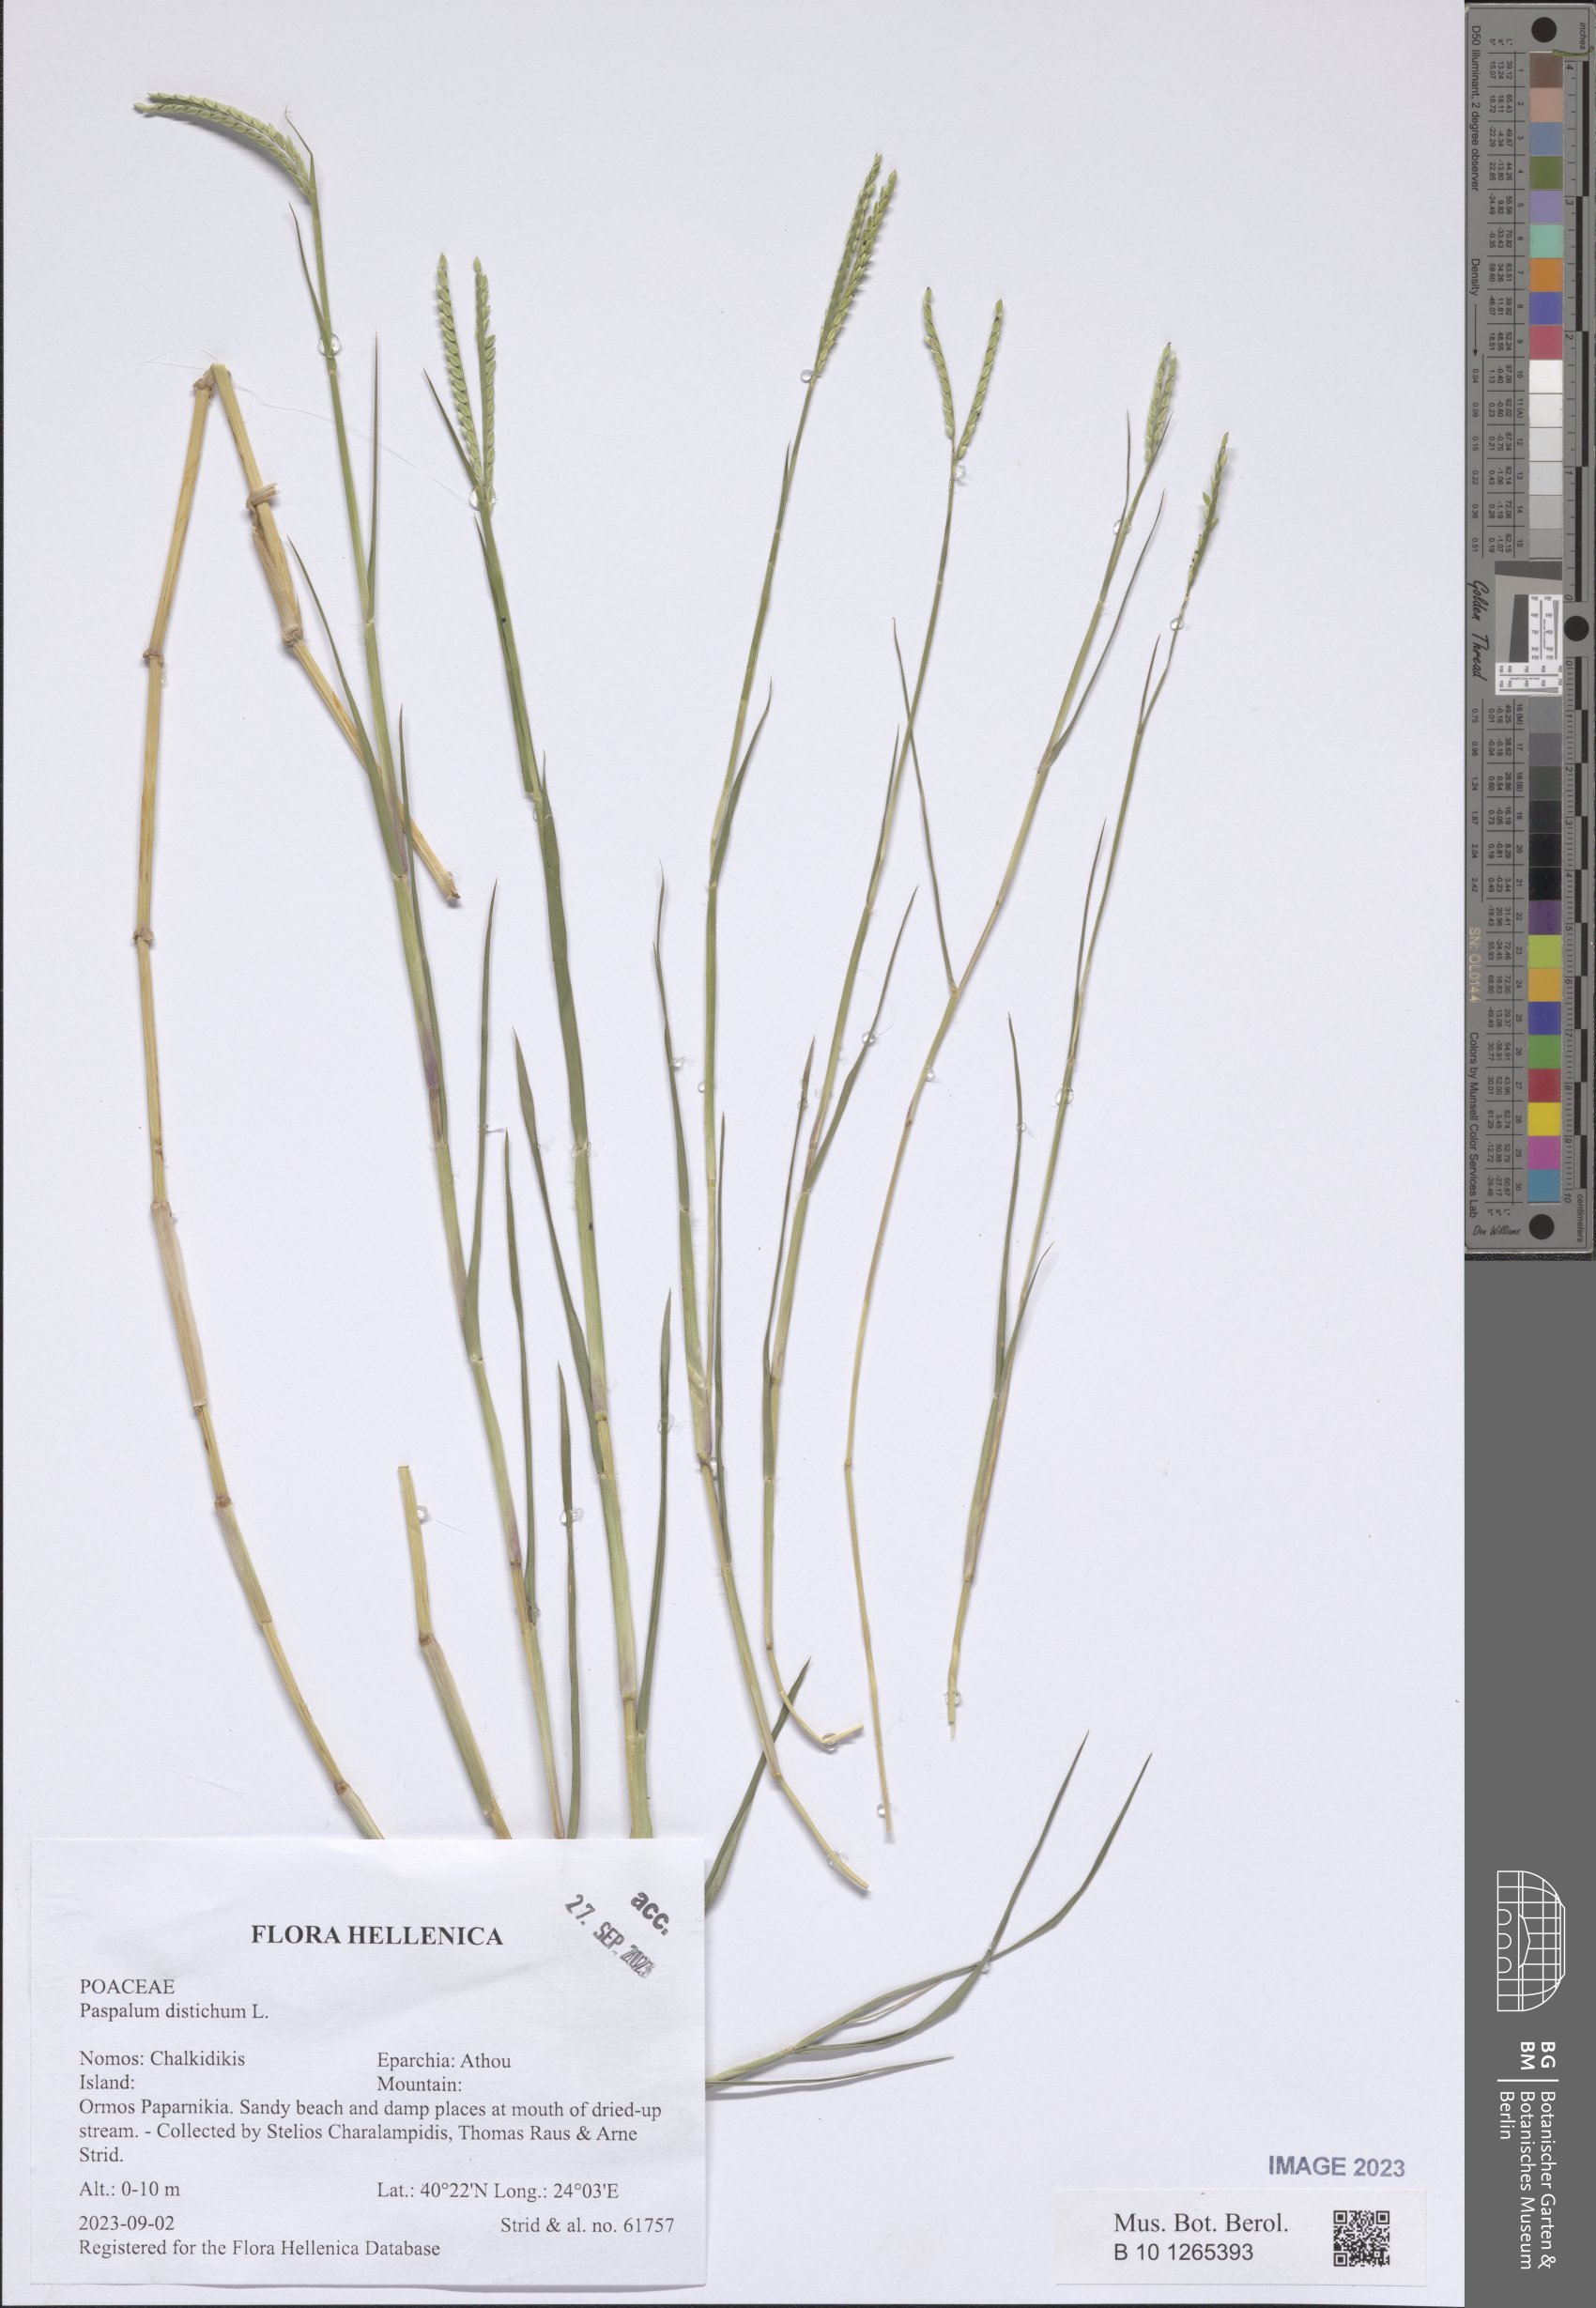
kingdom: Plantae
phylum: Tracheophyta
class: Liliopsida
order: Poales
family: Poaceae
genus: Paspalum
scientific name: Paspalum distichum
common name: Knotgrass
